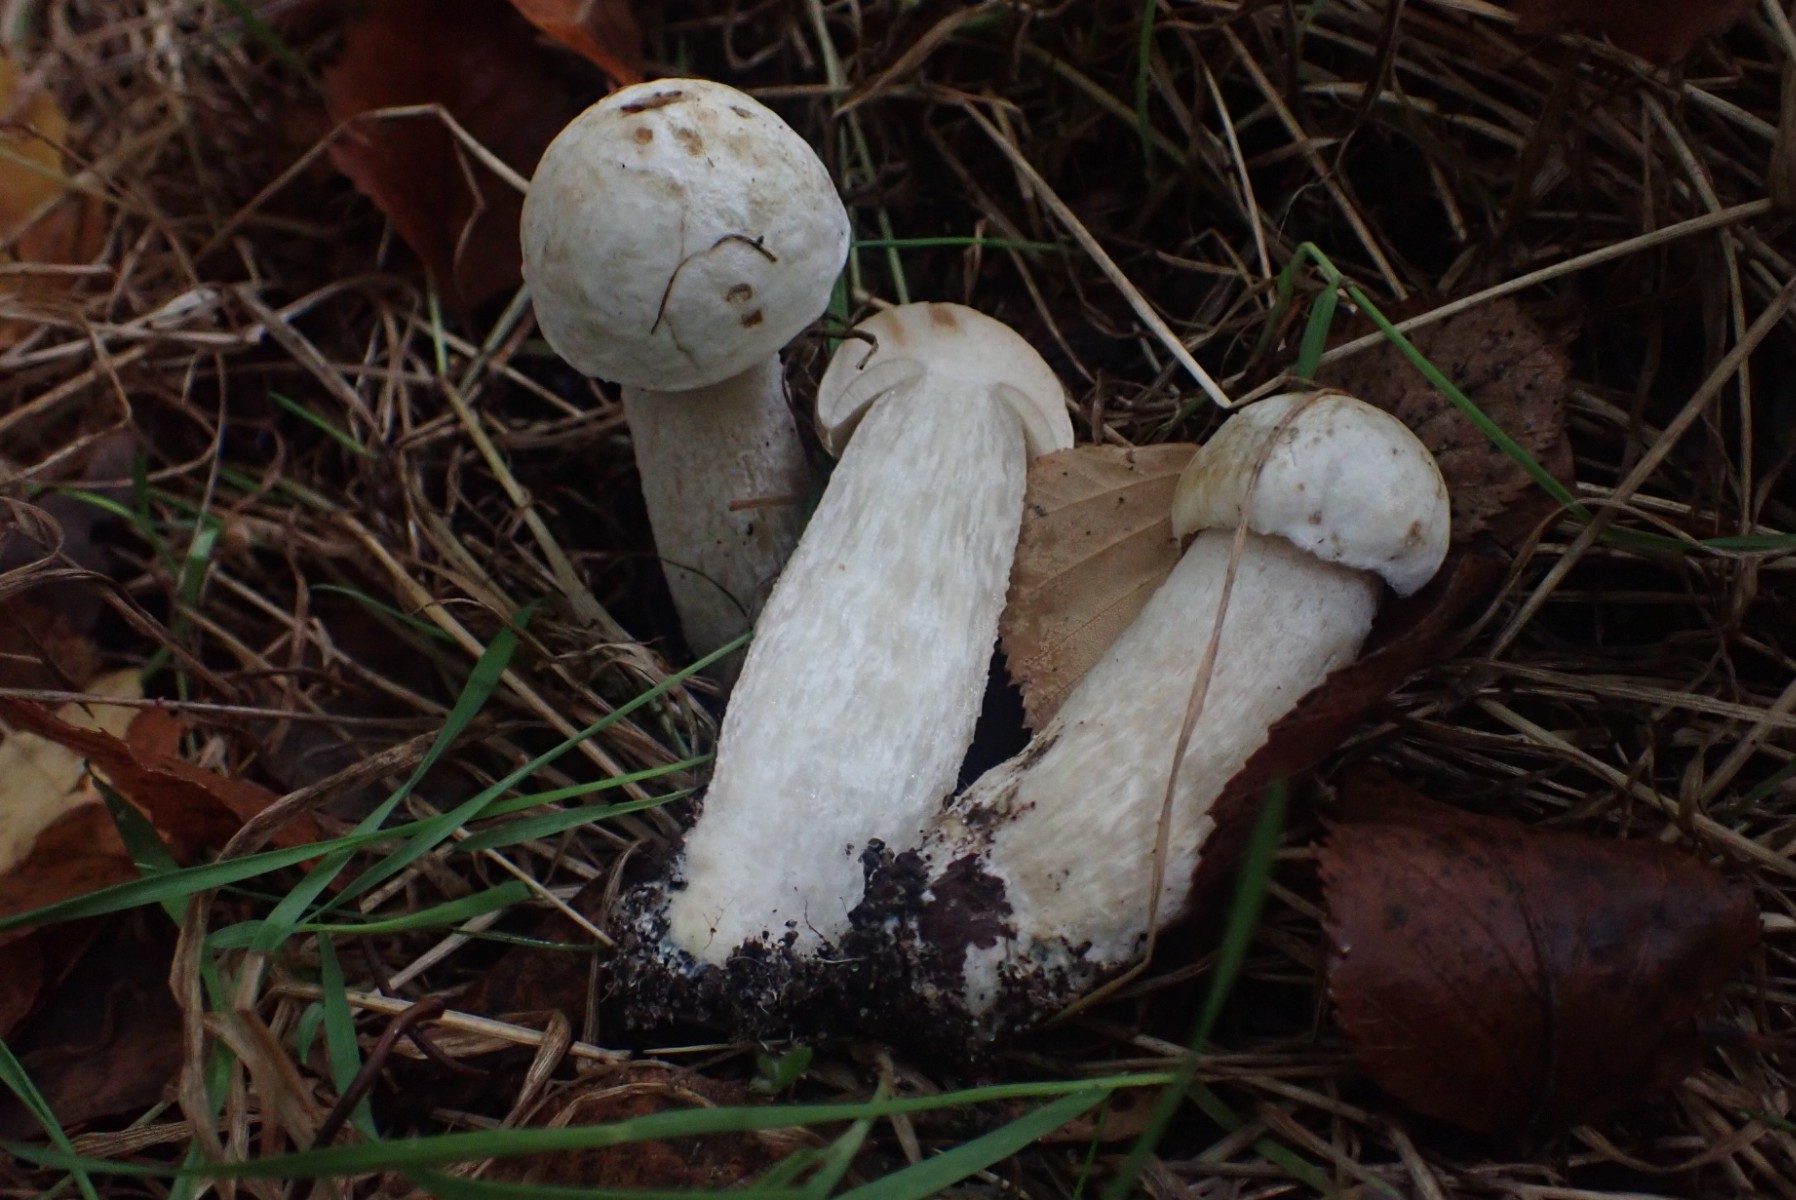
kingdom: Fungi
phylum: Basidiomycota
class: Agaricomycetes
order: Boletales
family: Boletaceae
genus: Leccinum
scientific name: Leccinum scabrum
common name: hvid skælrørhat
